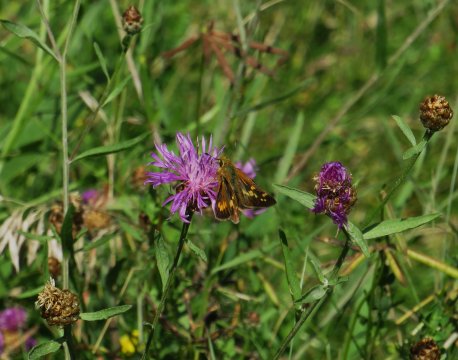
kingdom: Animalia
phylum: Arthropoda
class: Insecta
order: Lepidoptera
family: Hesperiidae
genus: Polites
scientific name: Polites coras
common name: Peck's Skipper
